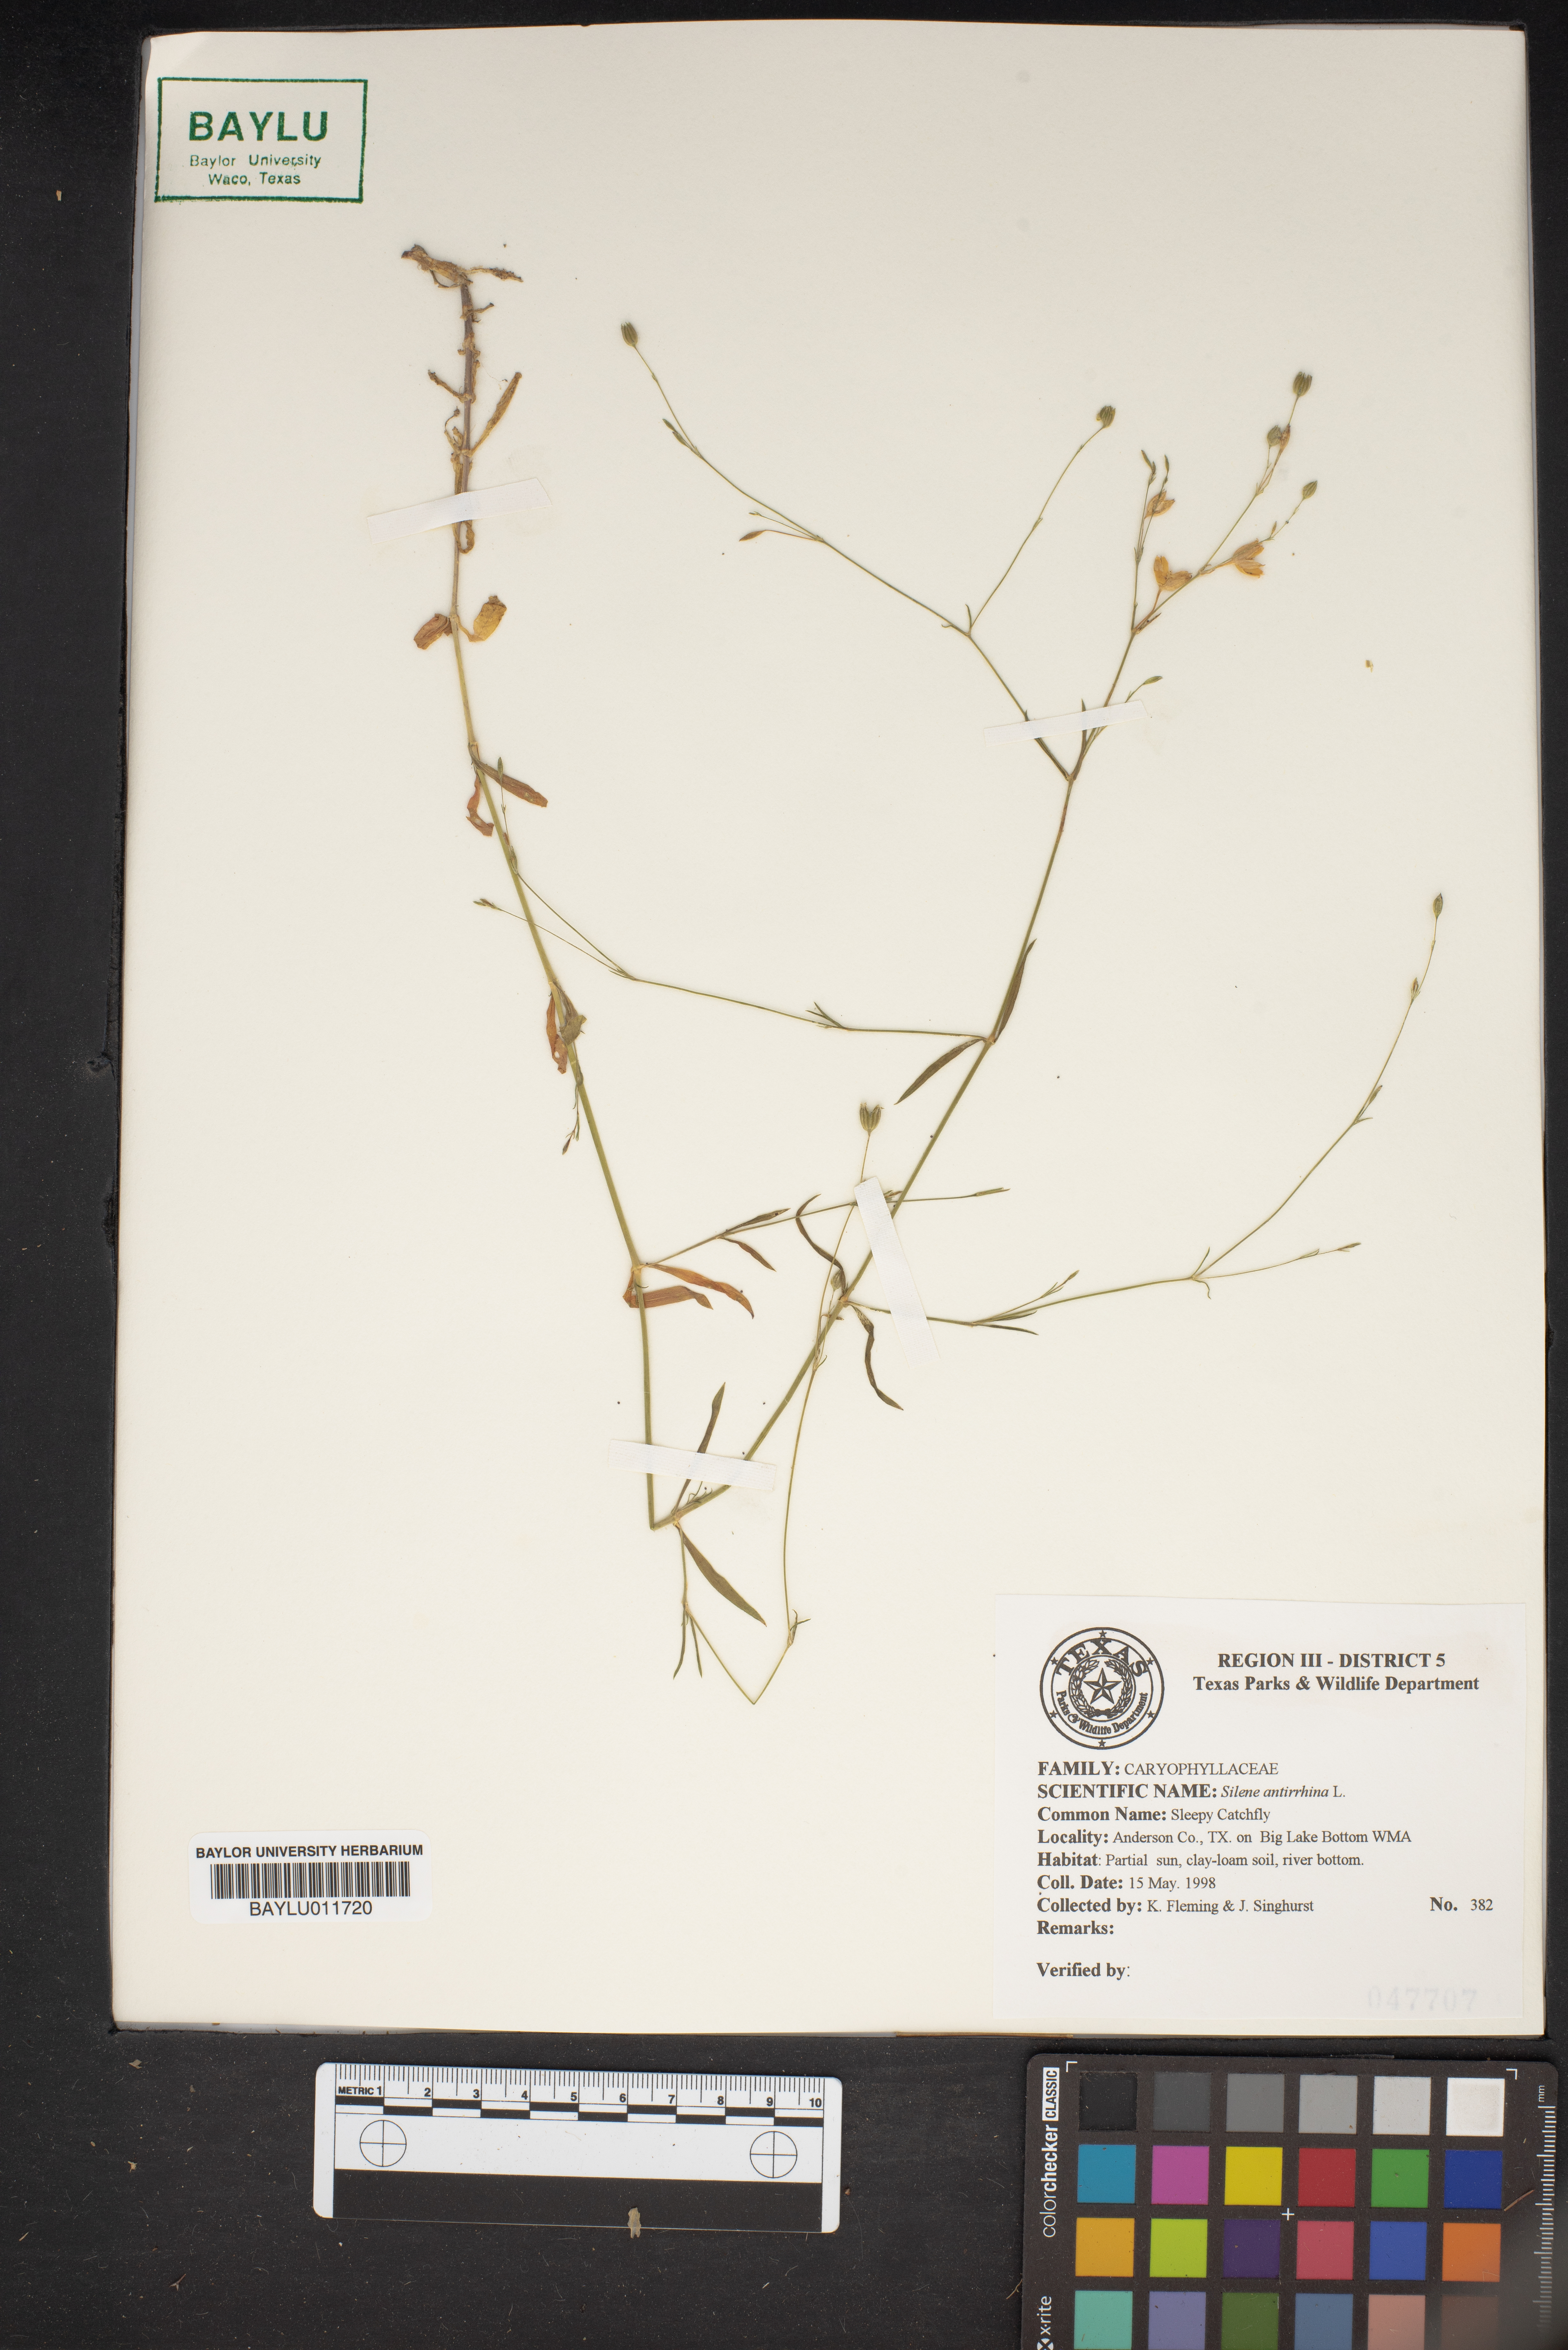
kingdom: Plantae
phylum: Tracheophyta
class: Magnoliopsida
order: Caryophyllales
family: Caryophyllaceae
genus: Silene
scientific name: Silene antirrhina
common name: Sleepy catchfly
